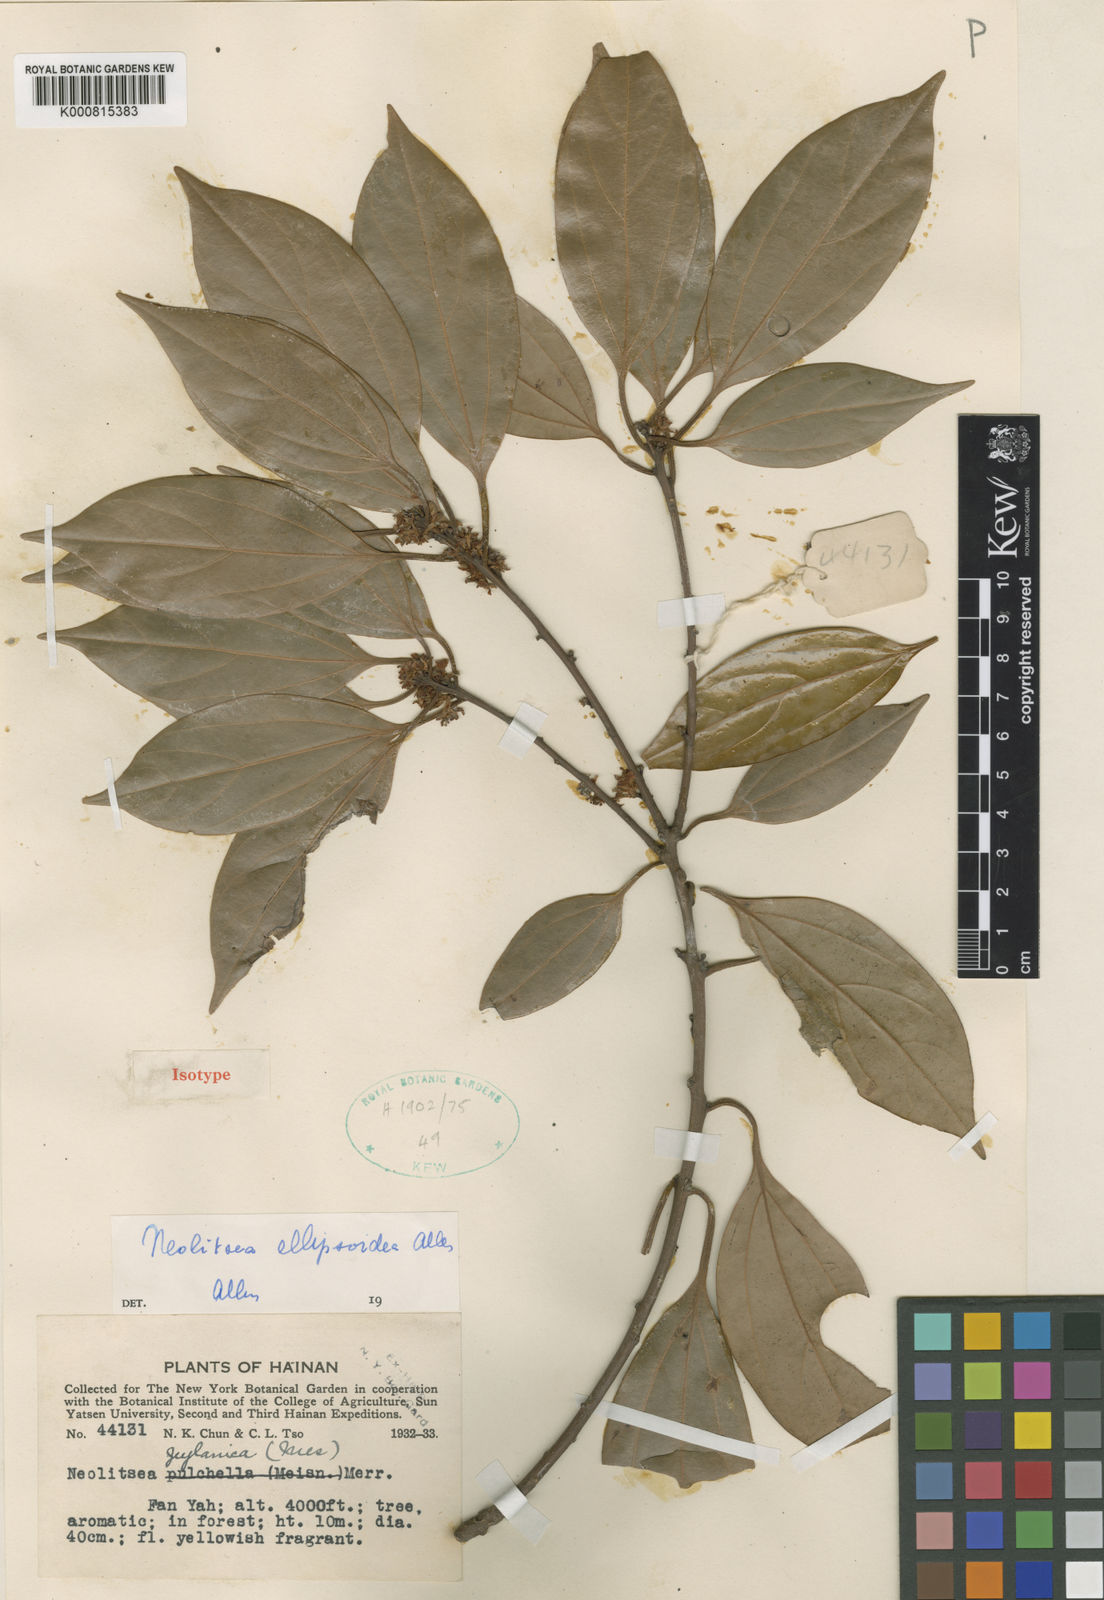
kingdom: Plantae
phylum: Tracheophyta
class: Magnoliopsida
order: Laurales
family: Lauraceae
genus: Neolitsea
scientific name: Neolitsea ellipsoidea
